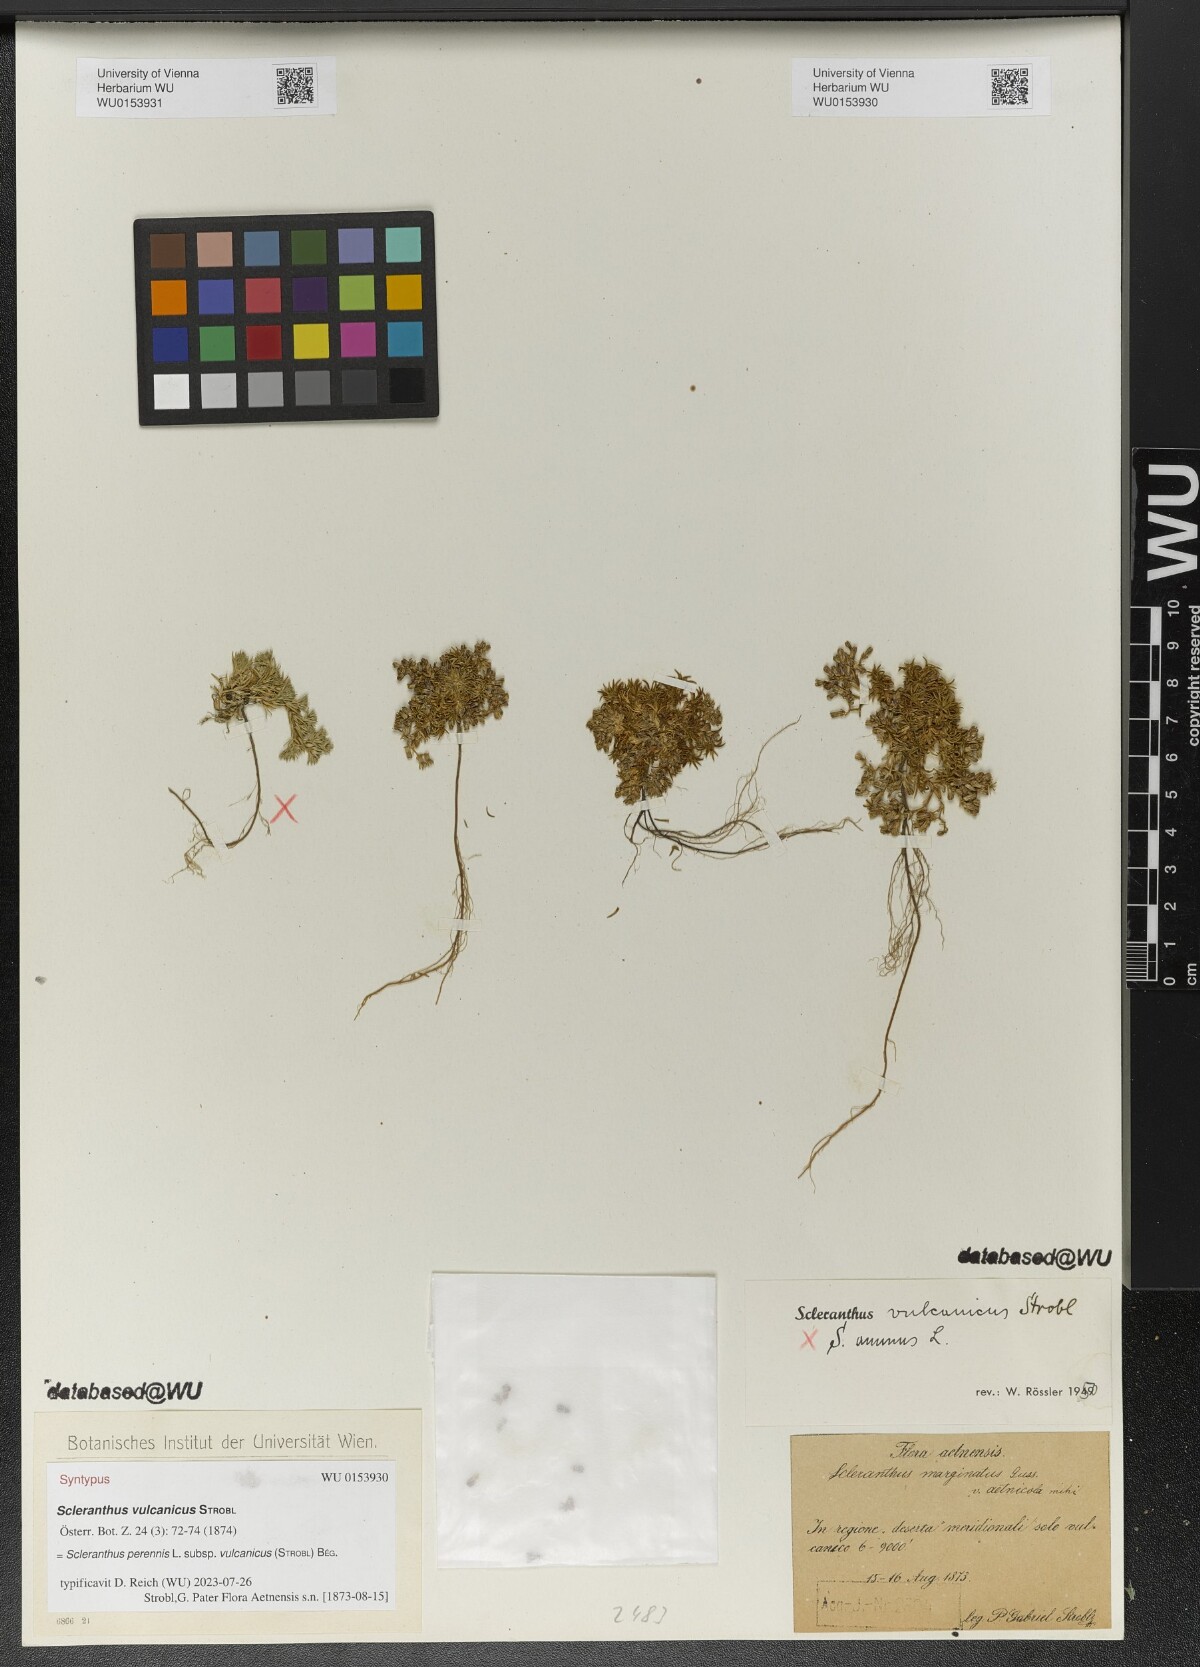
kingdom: Plantae
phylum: Tracheophyta
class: Magnoliopsida
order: Caryophyllales
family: Caryophyllaceae
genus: Scleranthus
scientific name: Scleranthus annuus
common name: Annual knawel
